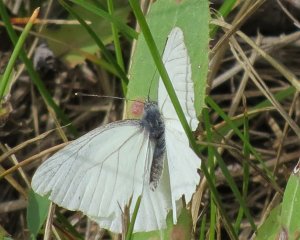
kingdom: Animalia
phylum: Arthropoda
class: Insecta
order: Lepidoptera
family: Pieridae
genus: Pieris
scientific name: Pieris oleracea
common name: Mustard White
